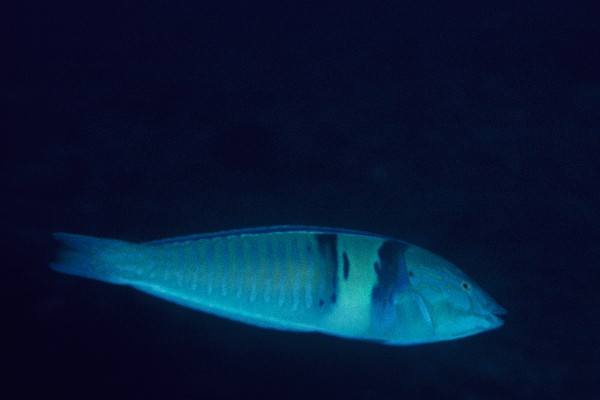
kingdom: Animalia
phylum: Chordata
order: Perciformes
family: Labridae
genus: Hologymnosus
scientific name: Hologymnosus doliatus
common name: Pastel ringwrasse
